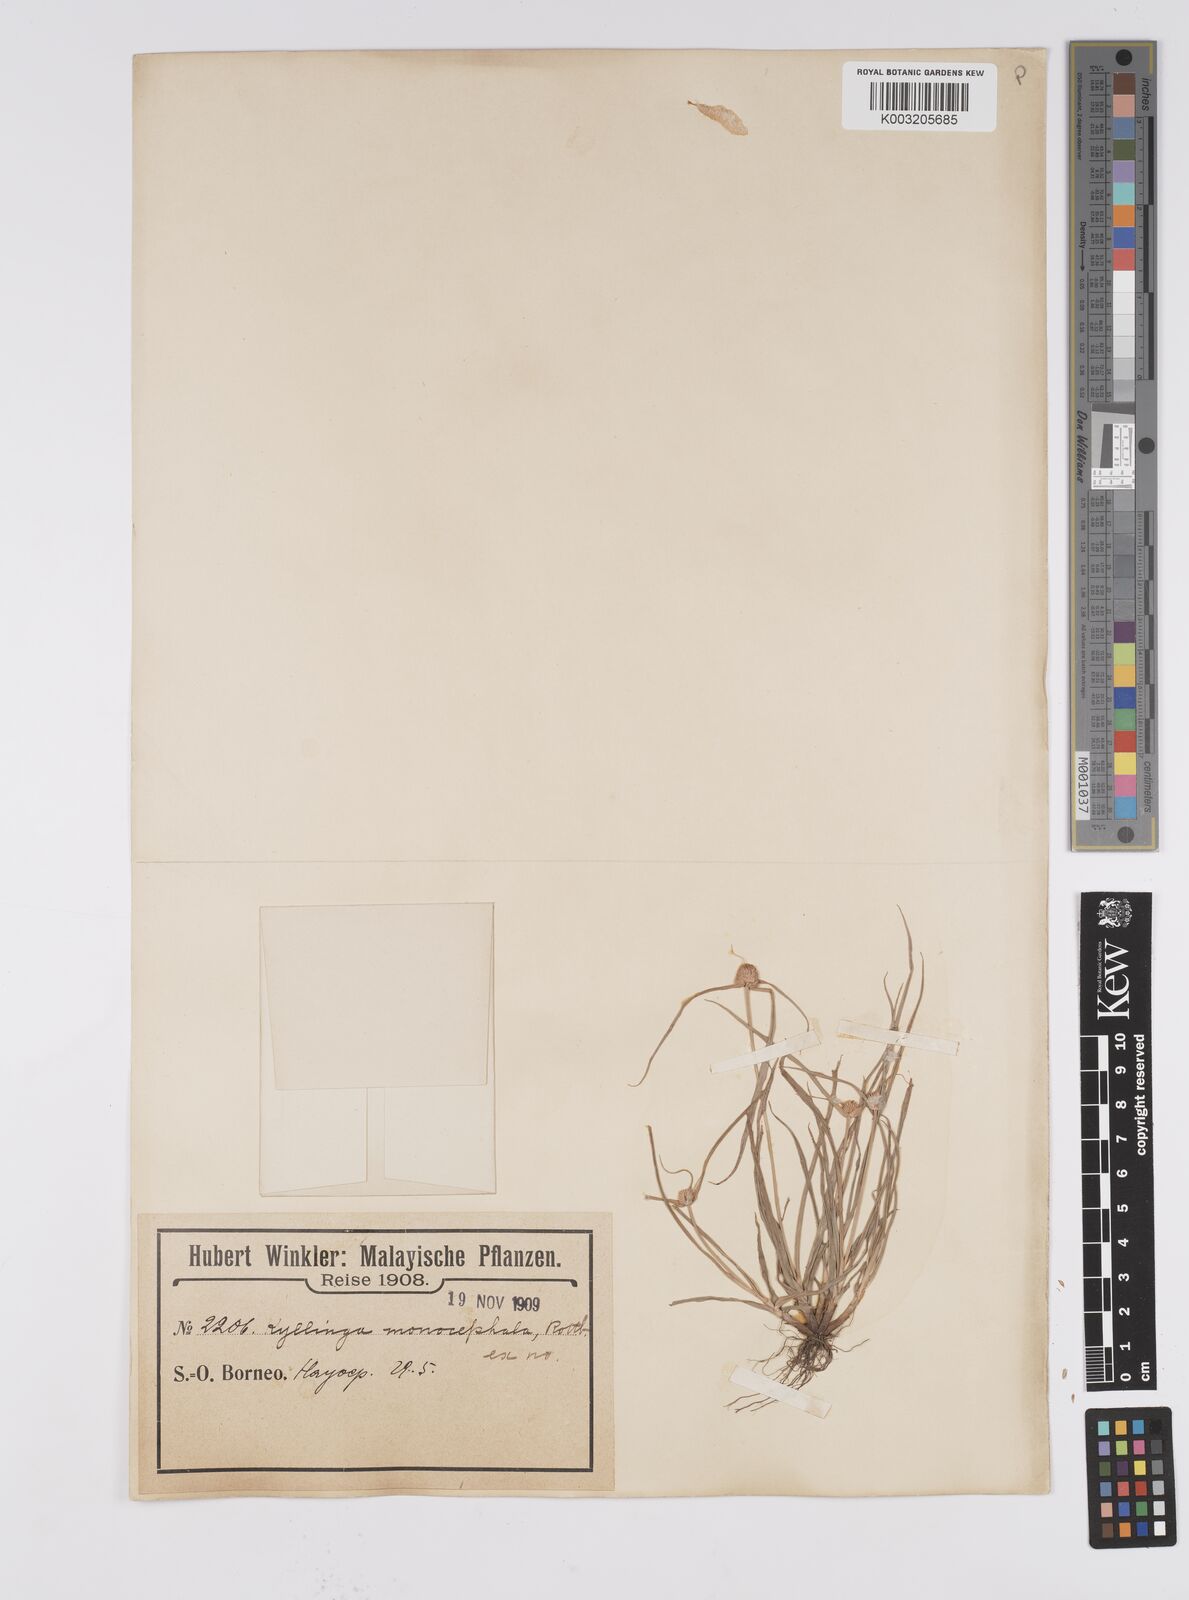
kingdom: Plantae
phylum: Tracheophyta
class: Liliopsida
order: Poales
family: Cyperaceae
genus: Cyperus
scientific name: Cyperus nemoralis
